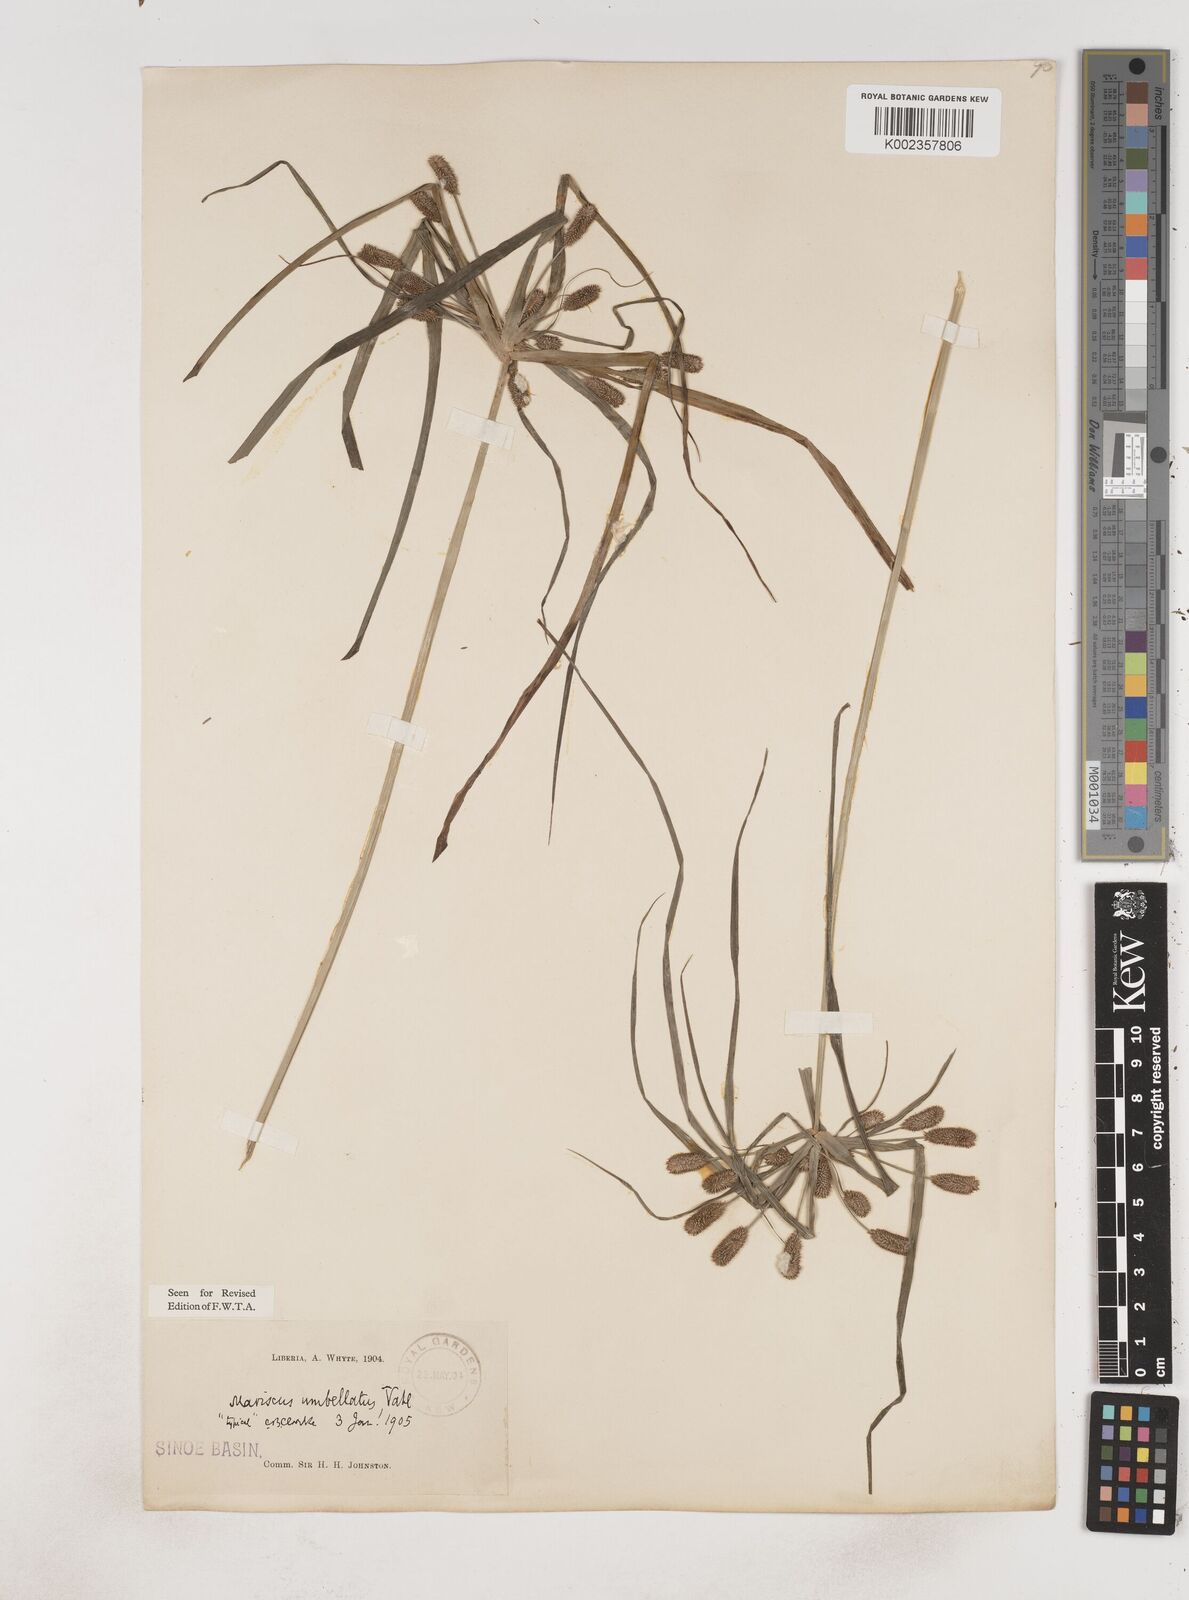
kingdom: Plantae
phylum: Tracheophyta
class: Liliopsida
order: Poales
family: Cyperaceae
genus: Cyperus
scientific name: Cyperus sublimis
